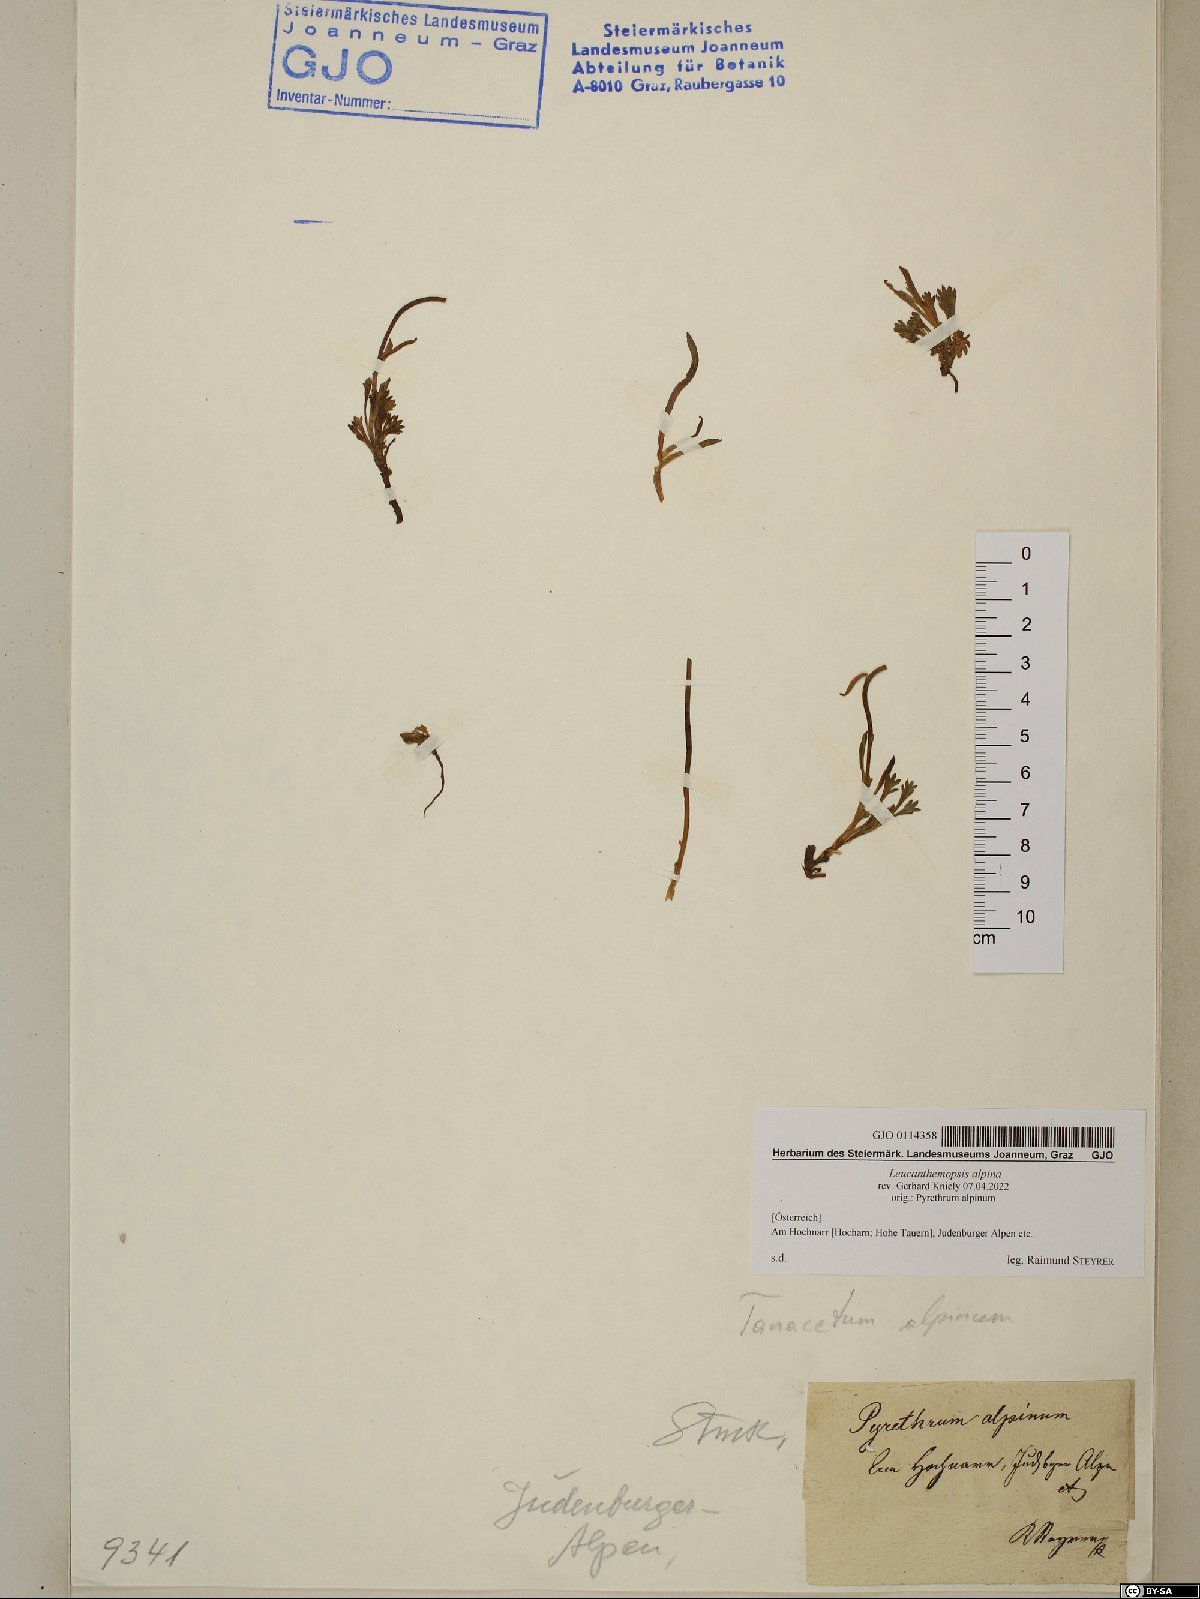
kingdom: Plantae
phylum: Tracheophyta
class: Magnoliopsida
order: Asterales
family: Asteraceae
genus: Leucanthemopsis
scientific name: Leucanthemopsis alpina
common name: Alpine moon daisy
